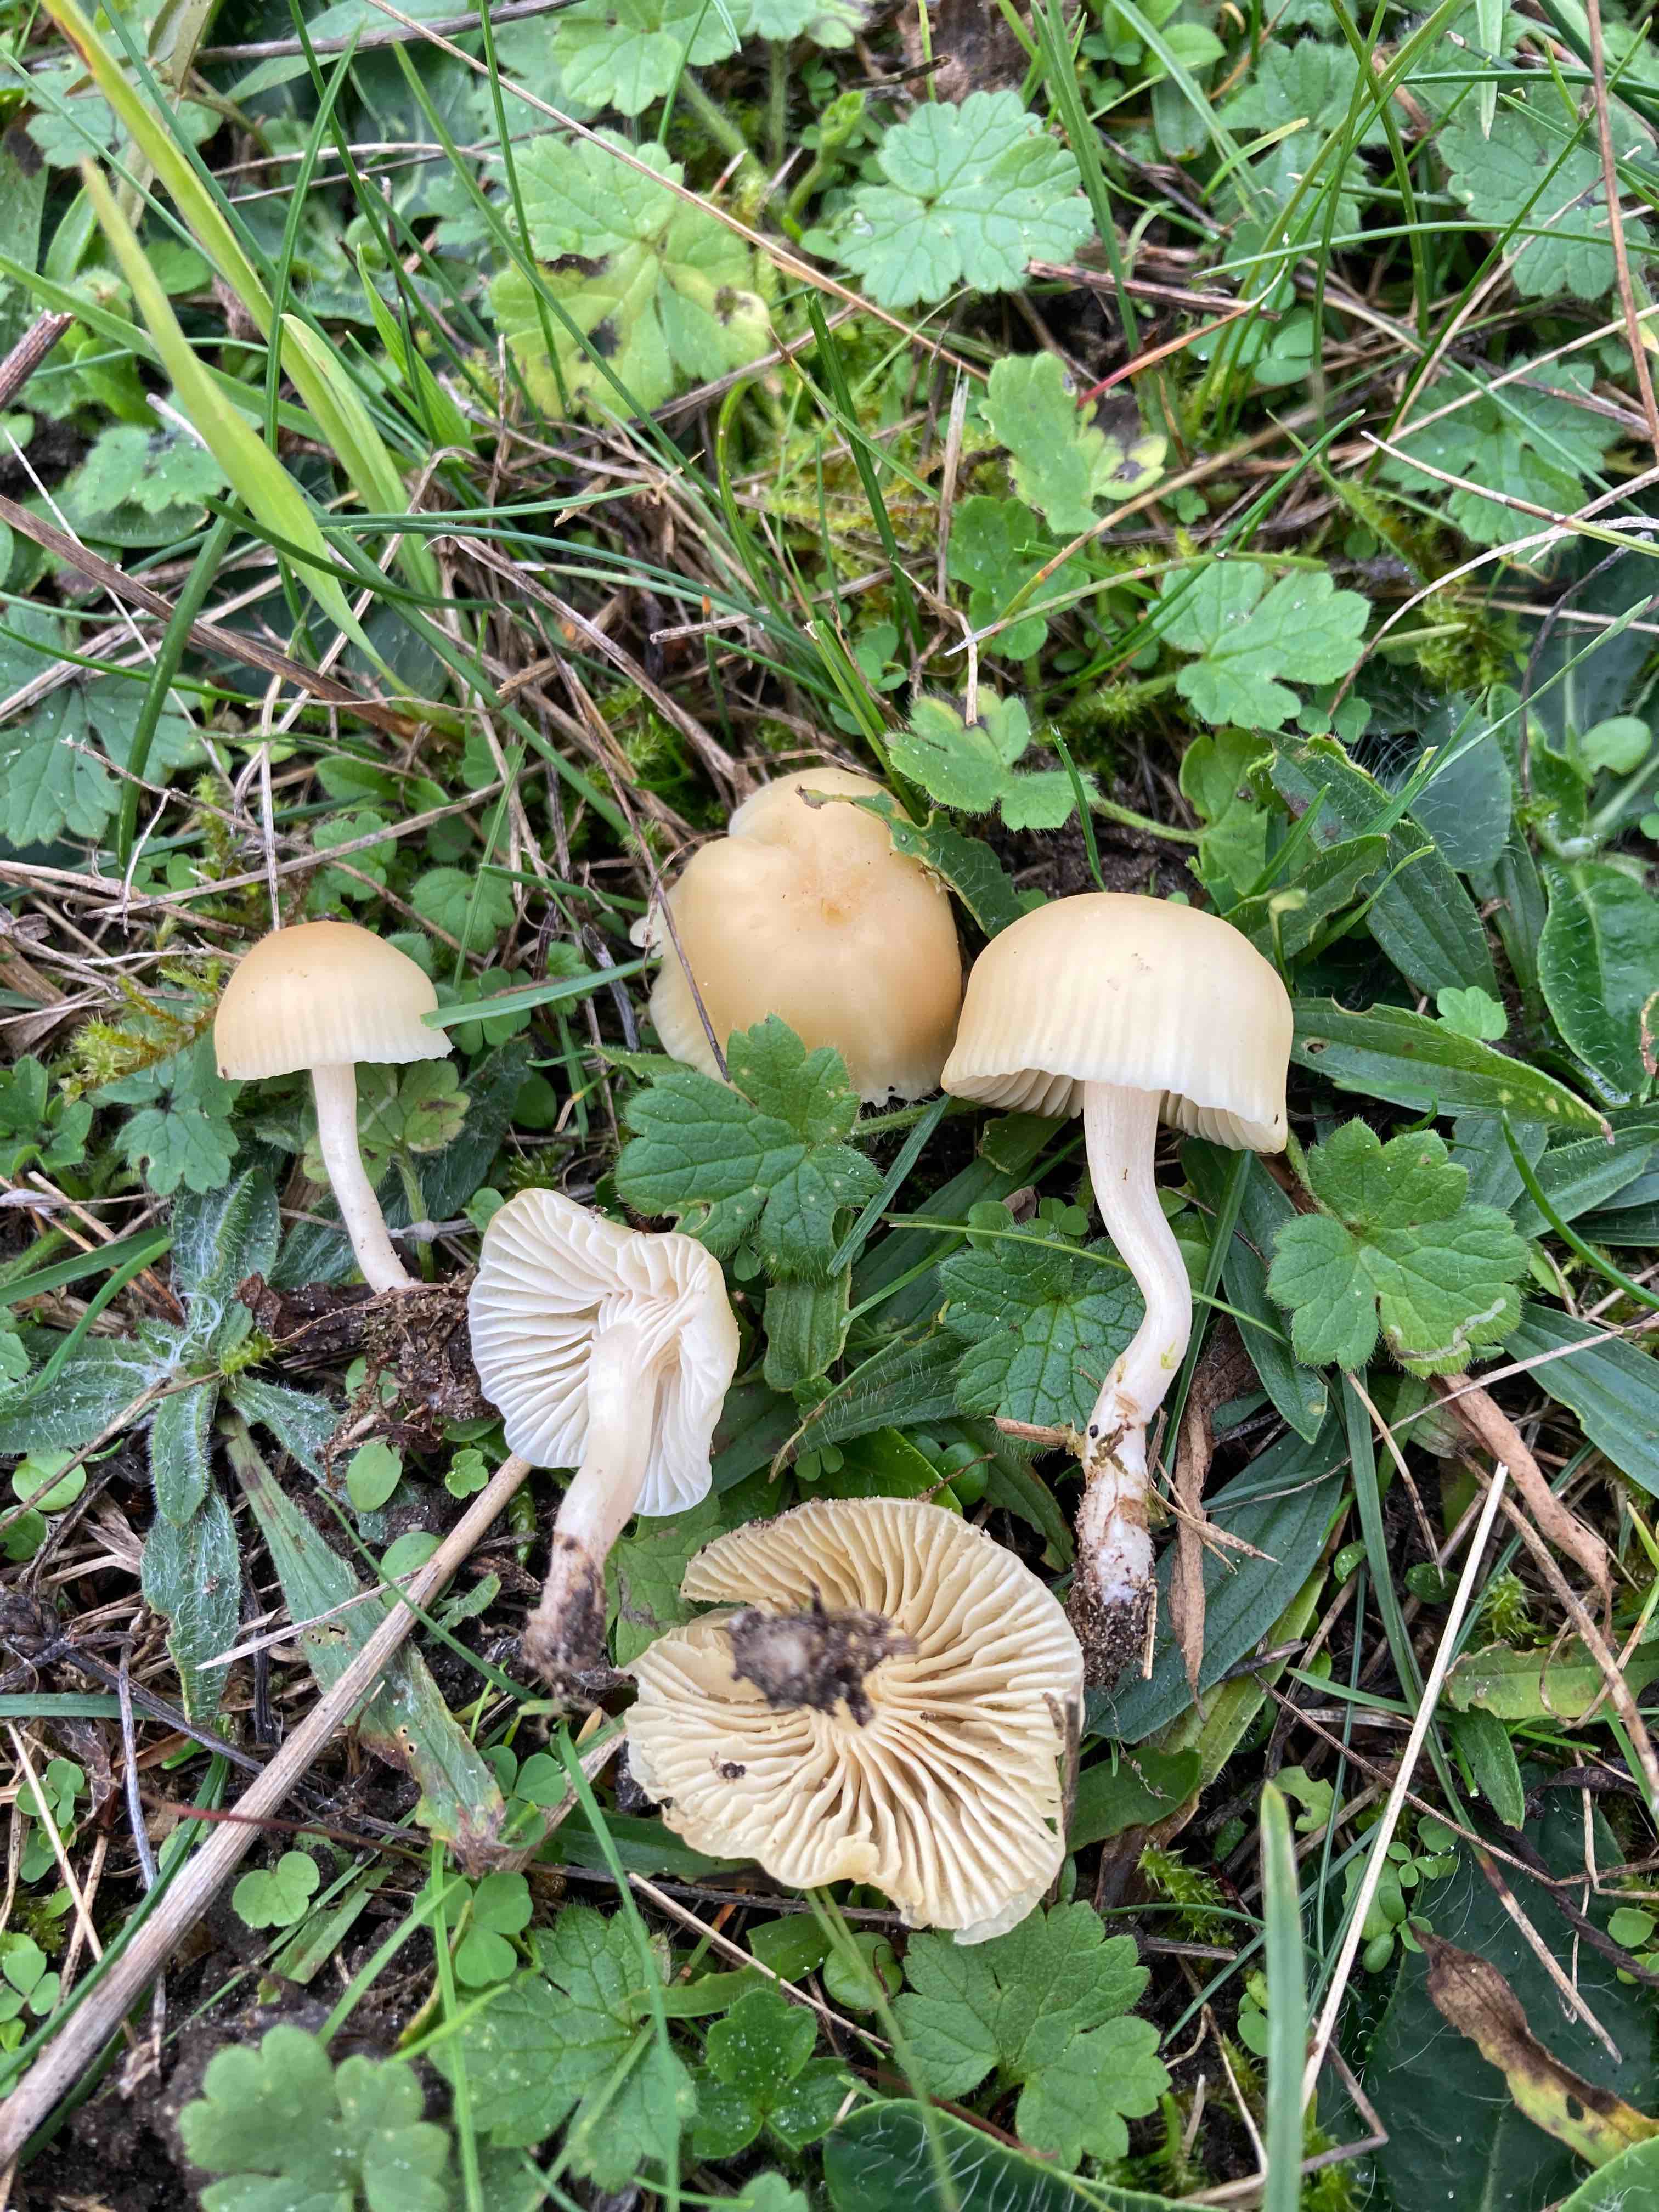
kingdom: Fungi
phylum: Basidiomycota
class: Agaricomycetes
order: Agaricales
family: Hygrophoraceae
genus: Cuphophyllus
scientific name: Cuphophyllus russocoriaceus
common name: ruslæder-vokshat
